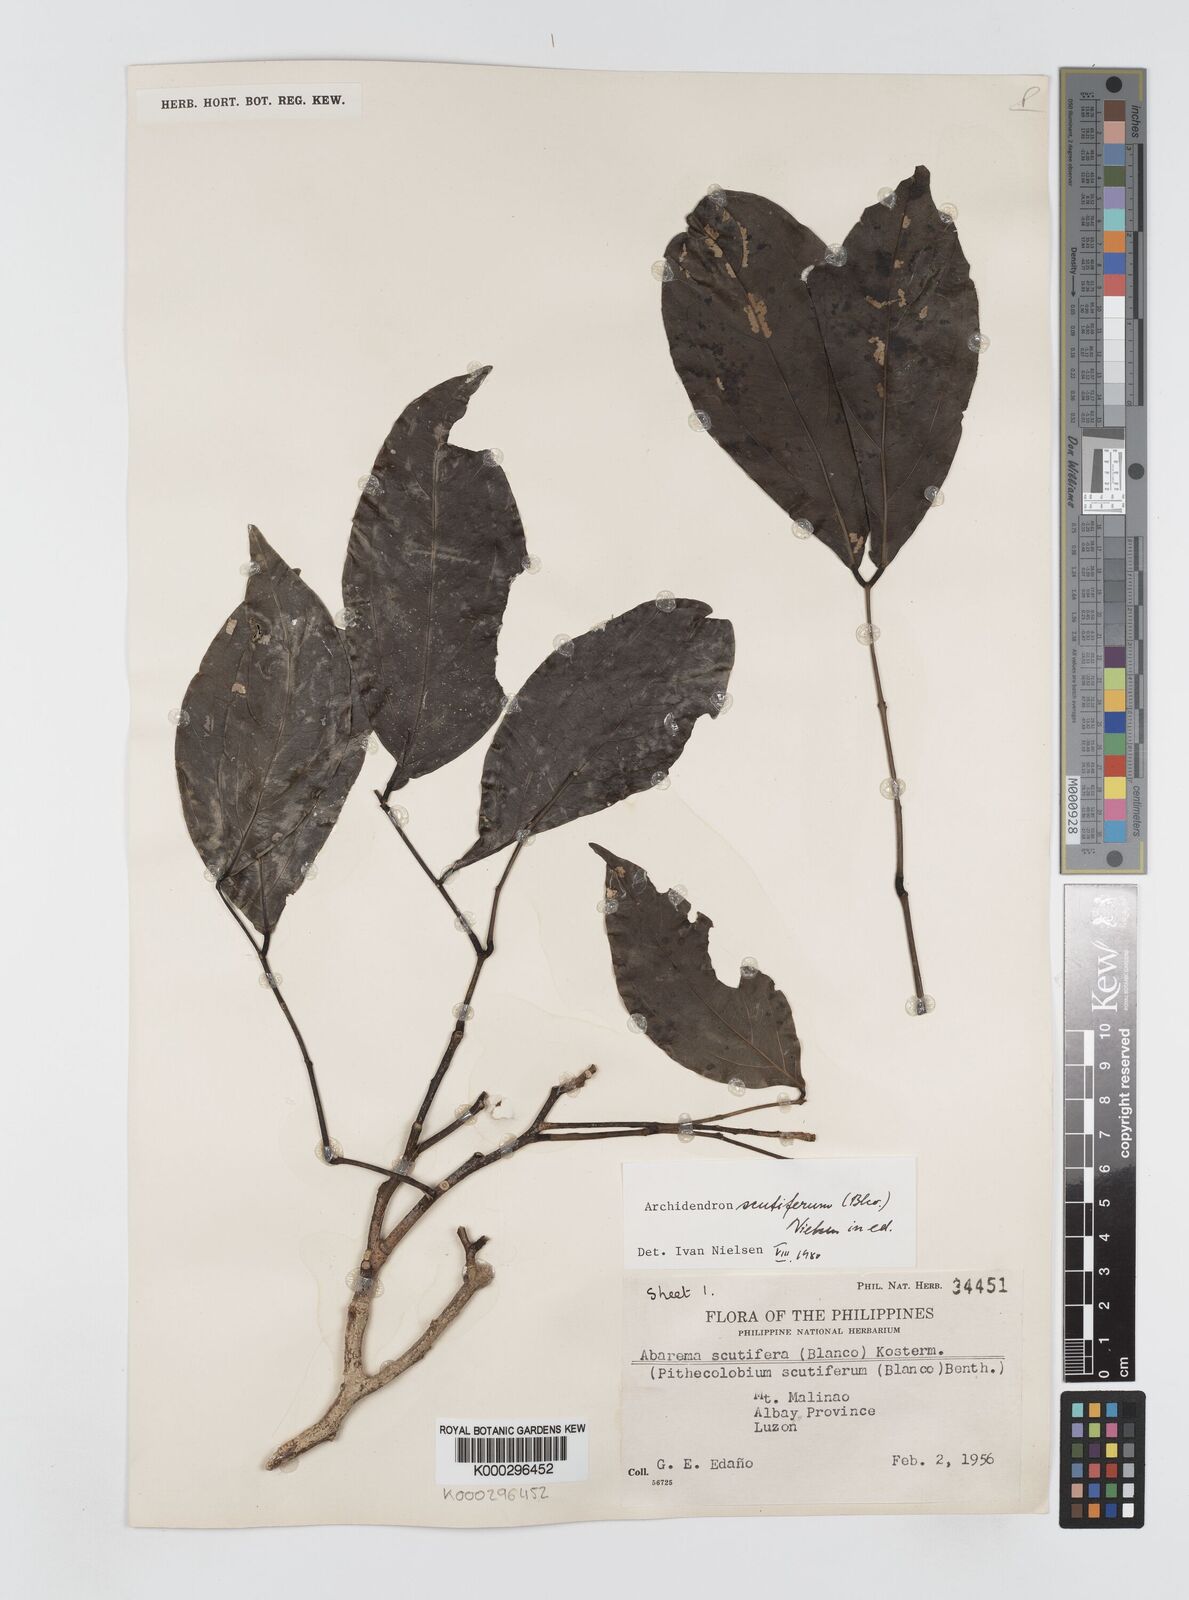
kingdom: Plantae
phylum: Tracheophyta
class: Magnoliopsida
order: Fabales
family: Fabaceae
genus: Archidendron
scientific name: Archidendron scutiferum
